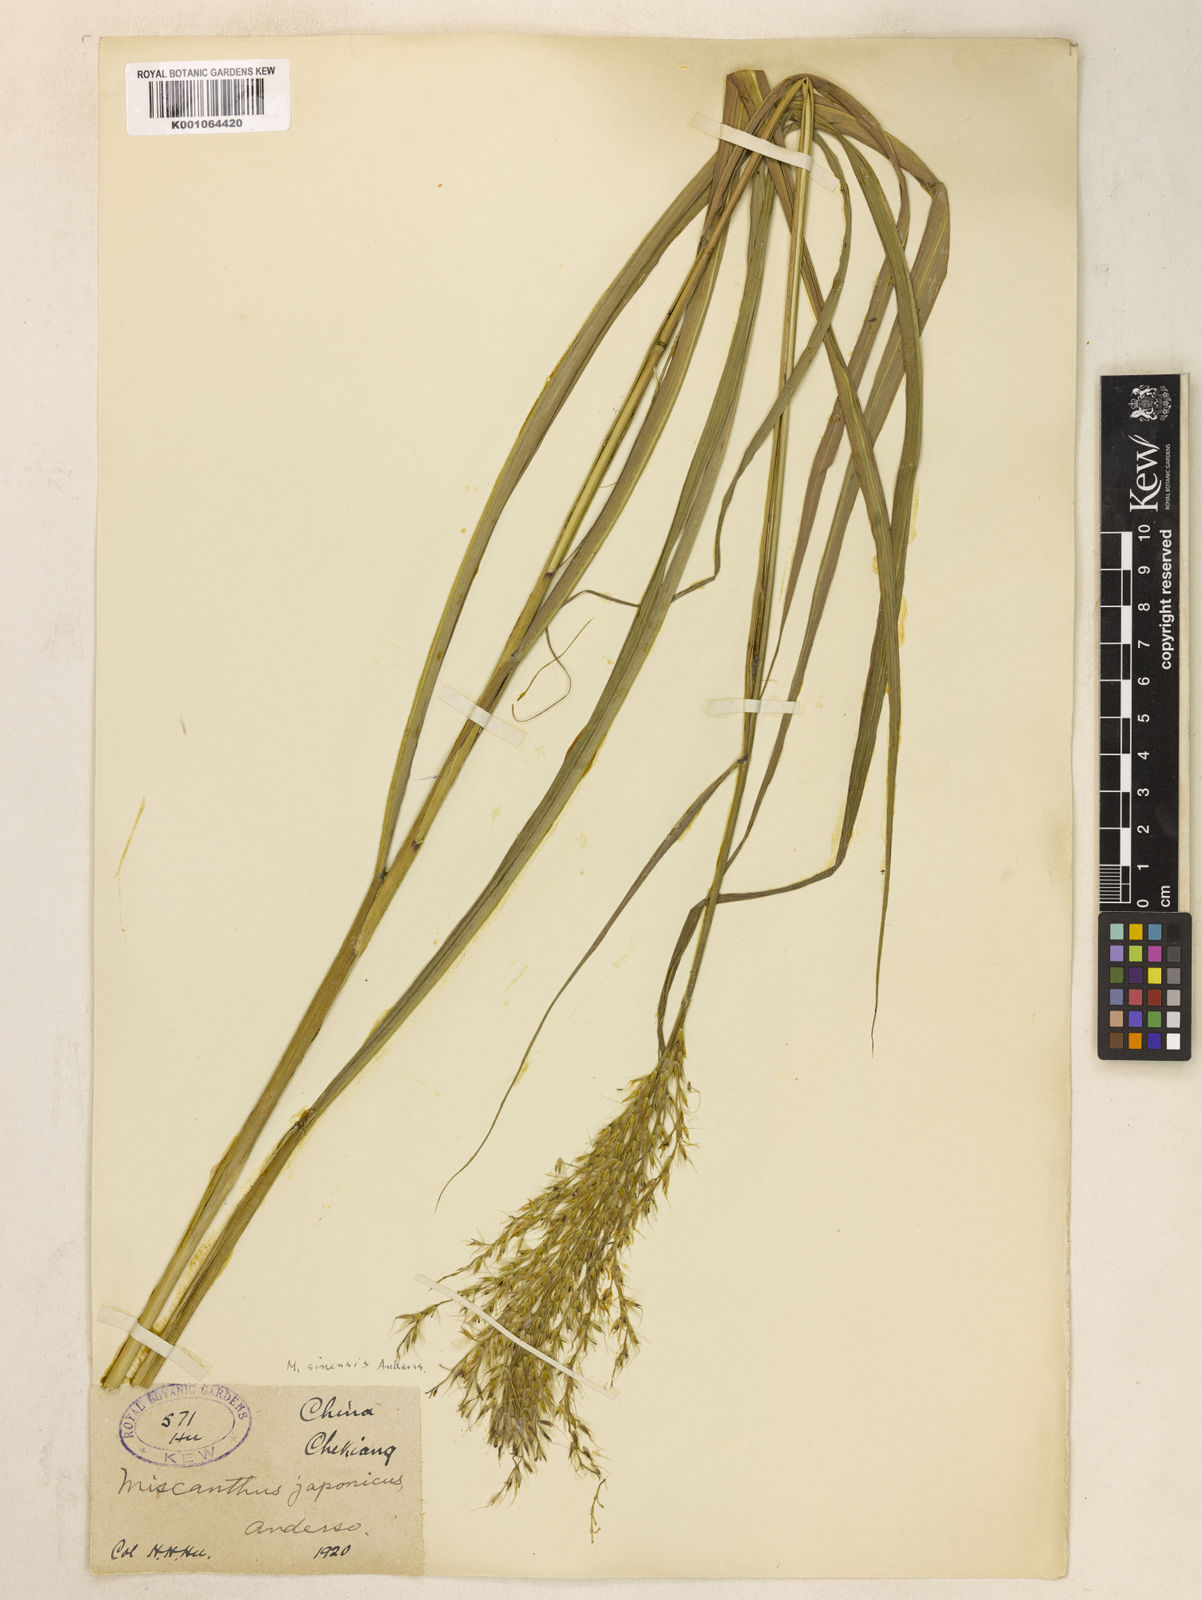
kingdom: Plantae
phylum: Tracheophyta
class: Liliopsida
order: Poales
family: Poaceae
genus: Miscanthus
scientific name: Miscanthus sinensis
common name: Chinese silvergrass
